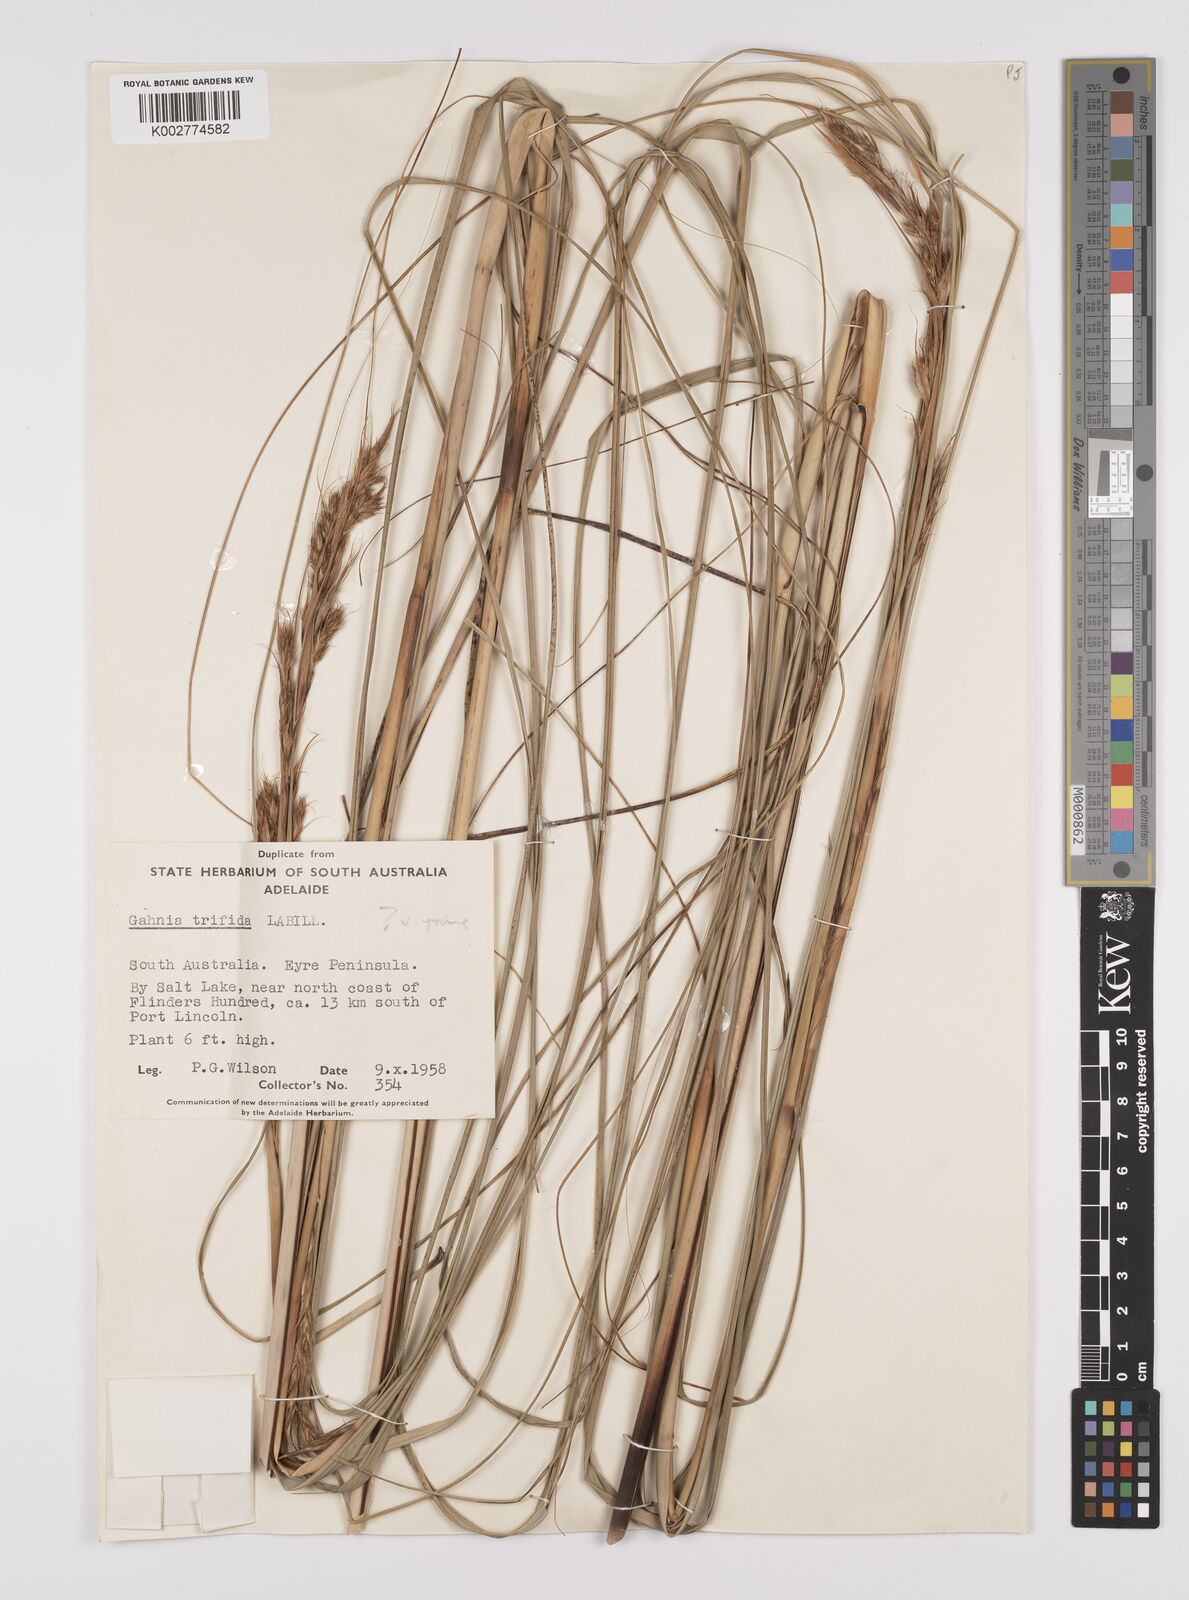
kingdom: Plantae
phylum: Tracheophyta
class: Liliopsida
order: Poales
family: Cyperaceae
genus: Gahnia
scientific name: Gahnia trifida
